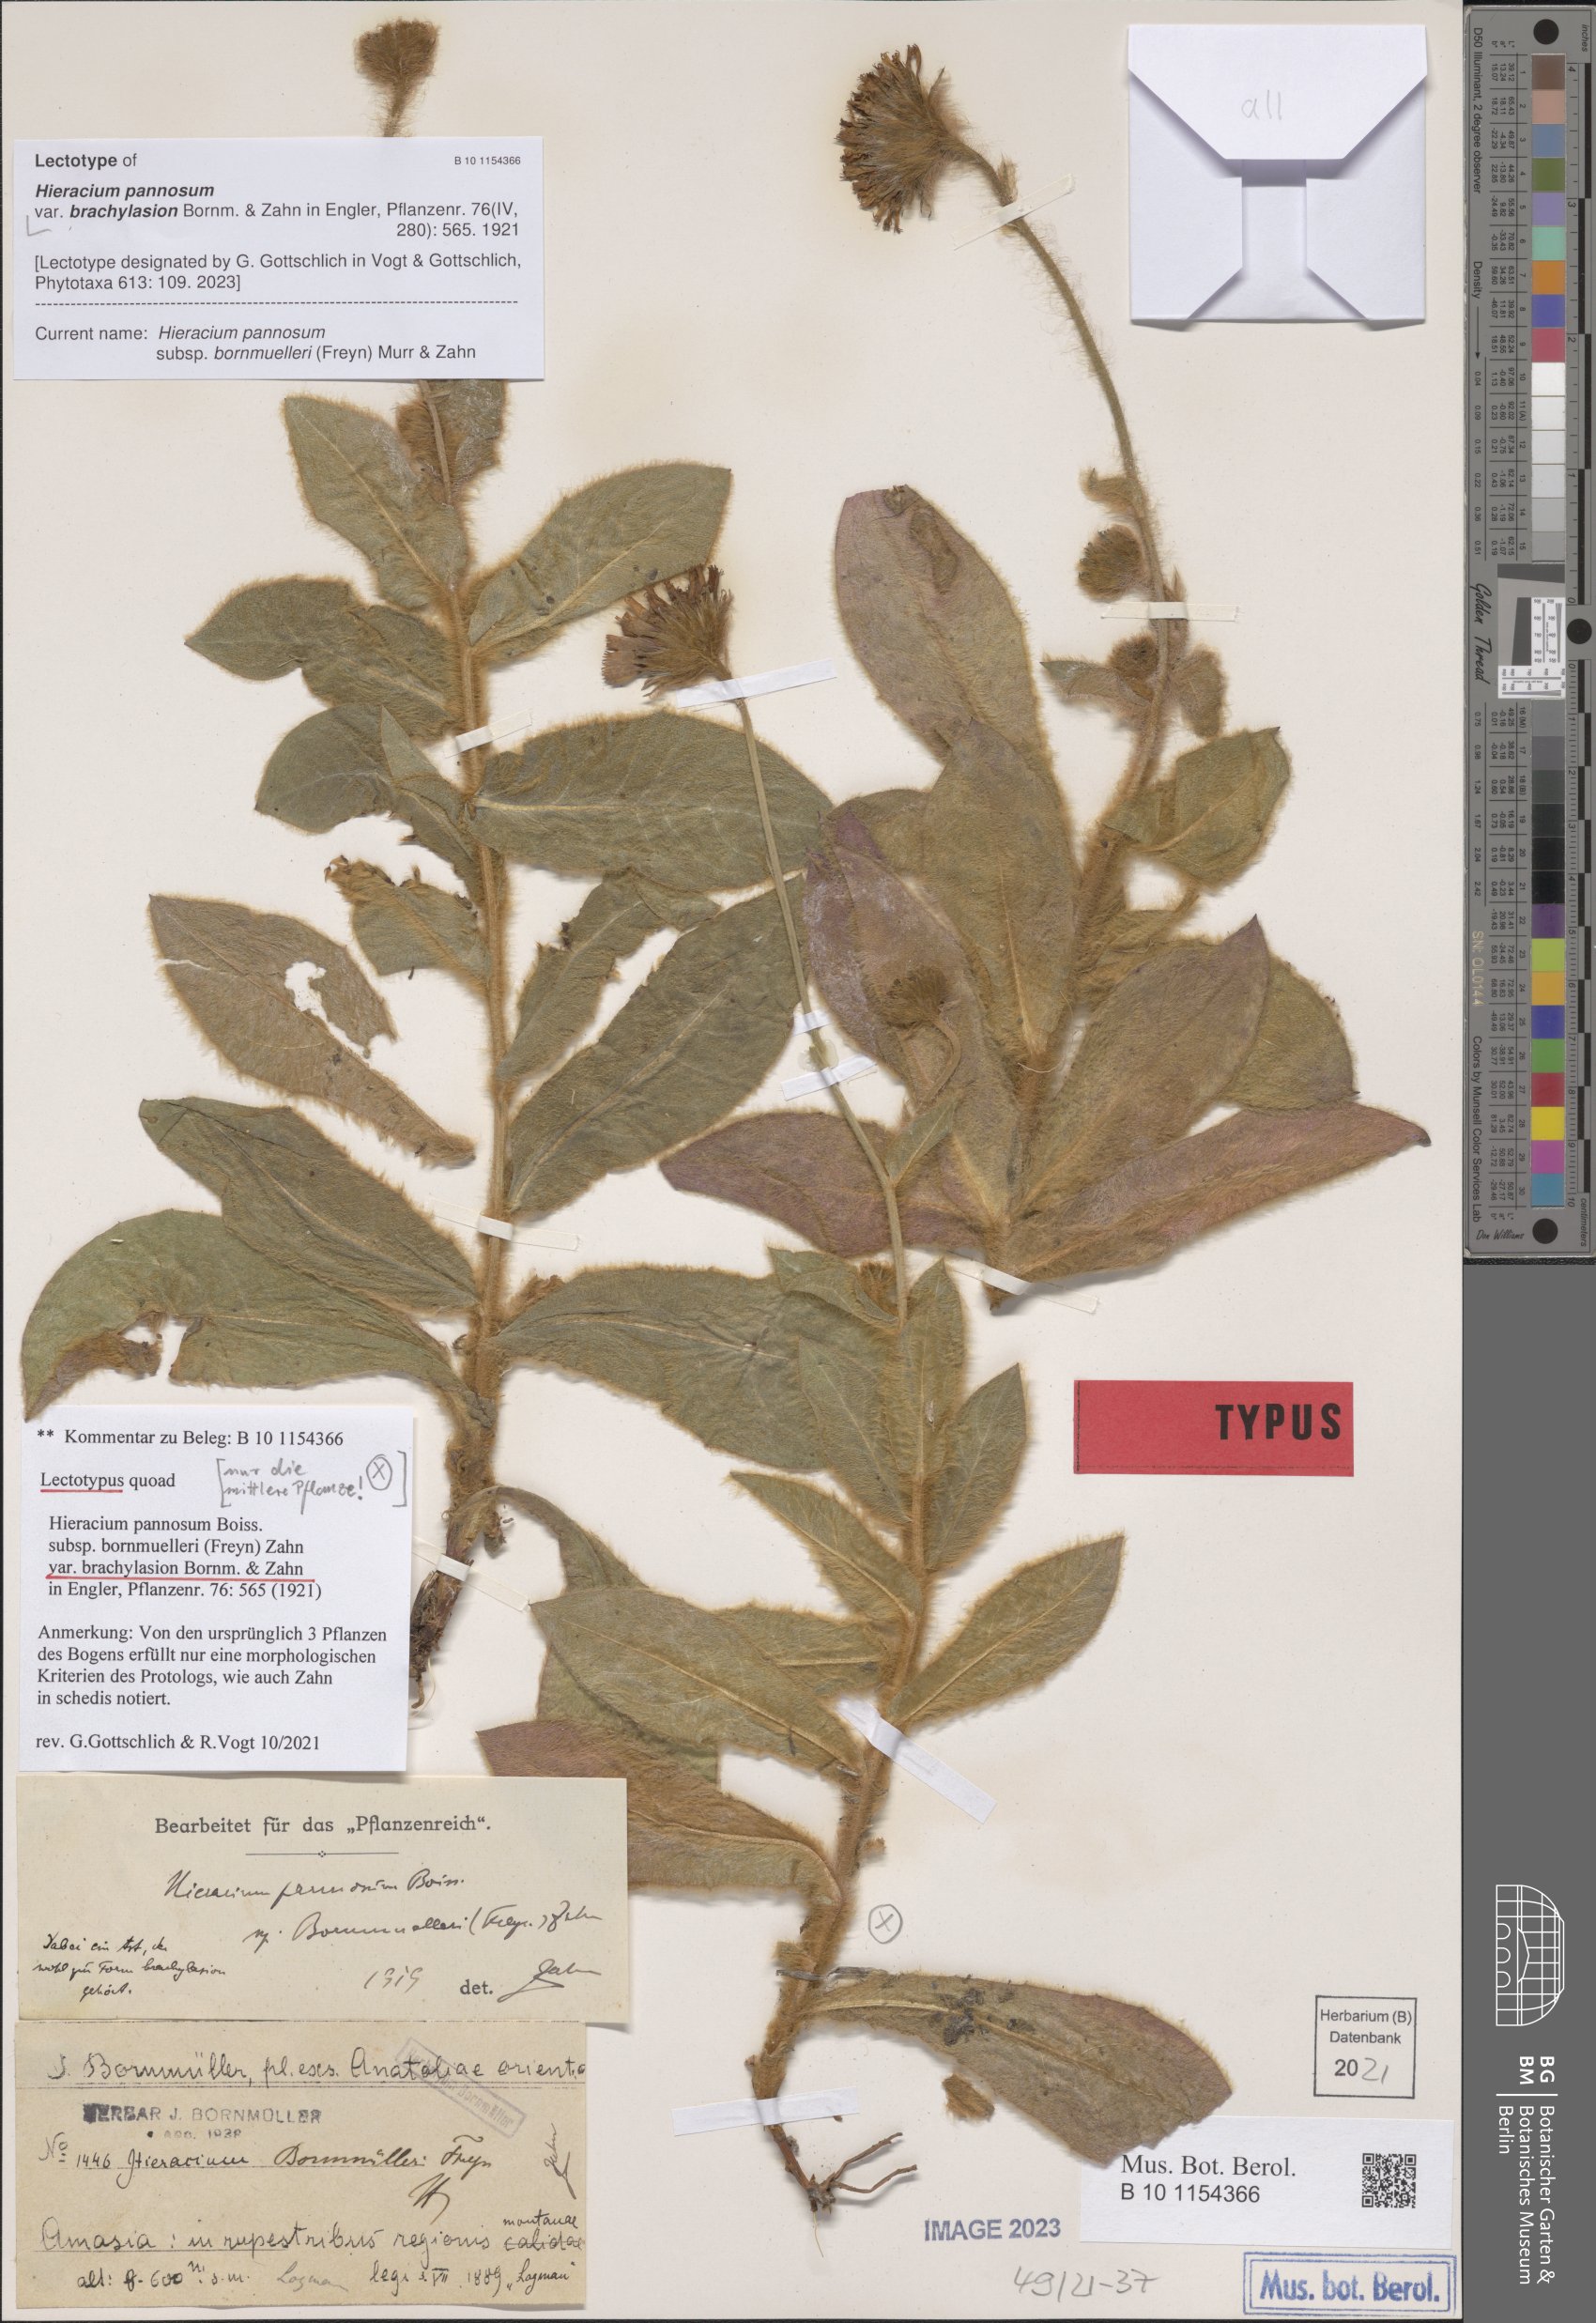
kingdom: Plantae
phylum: Tracheophyta
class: Magnoliopsida
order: Asterales
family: Asteraceae
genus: Hieracium
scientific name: Hieracium pannosum
